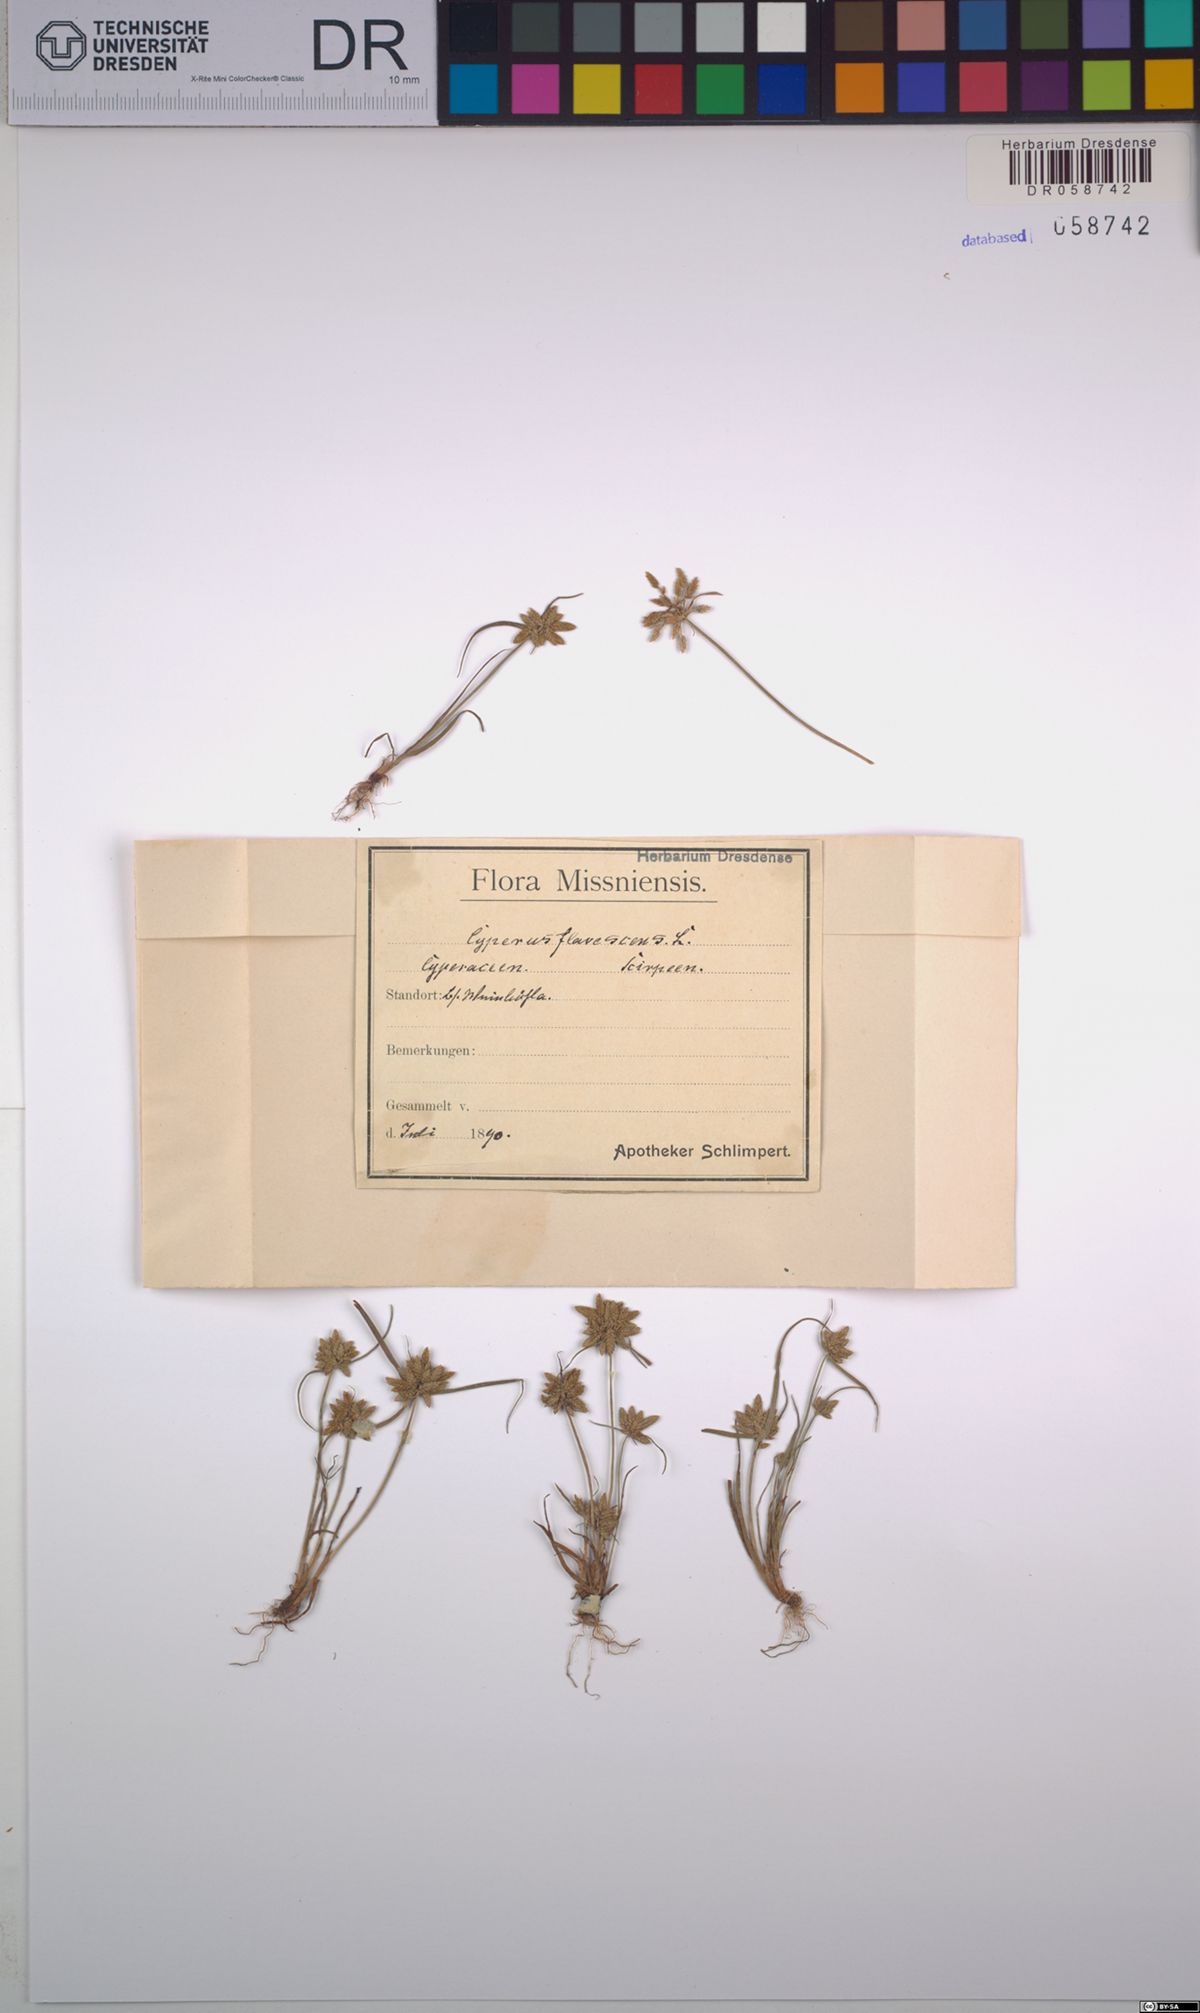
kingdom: Plantae
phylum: Tracheophyta
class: Liliopsida
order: Poales
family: Cyperaceae
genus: Cyperus
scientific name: Cyperus flavescens
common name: Yellow galingale
